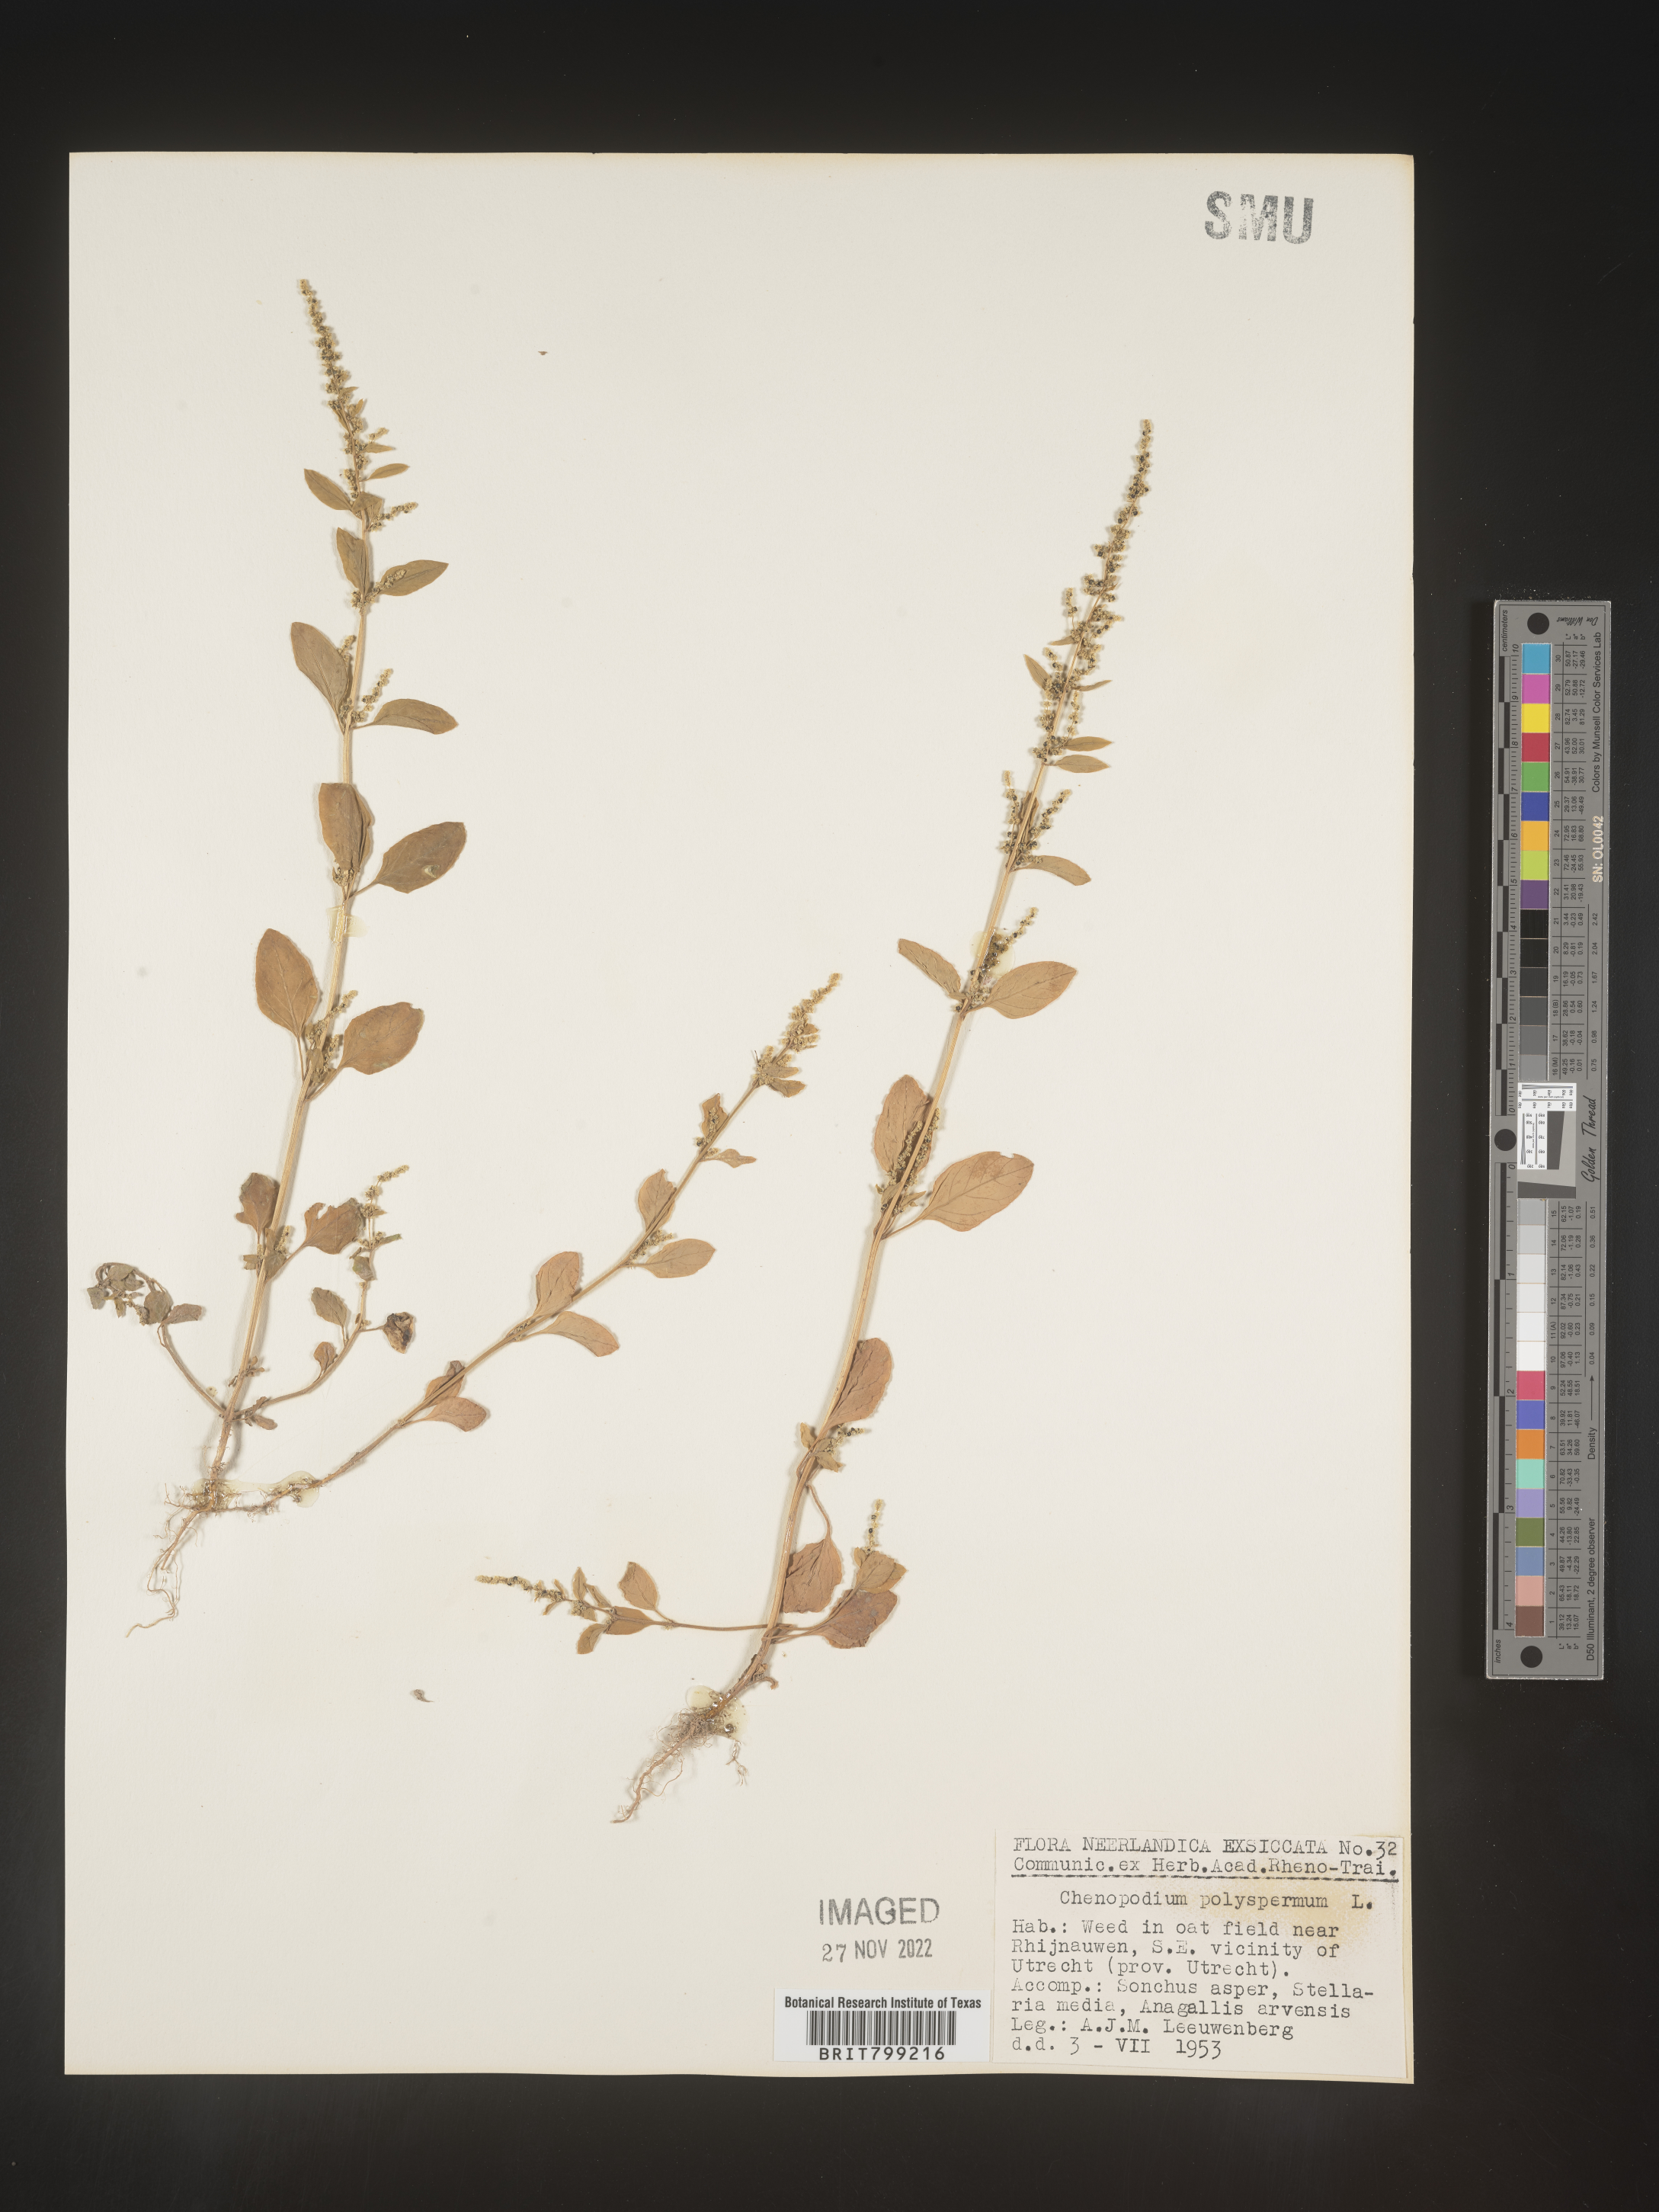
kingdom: Plantae
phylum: Tracheophyta
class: Magnoliopsida
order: Caryophyllales
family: Amaranthaceae
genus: Chenopodium
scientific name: Chenopodium
